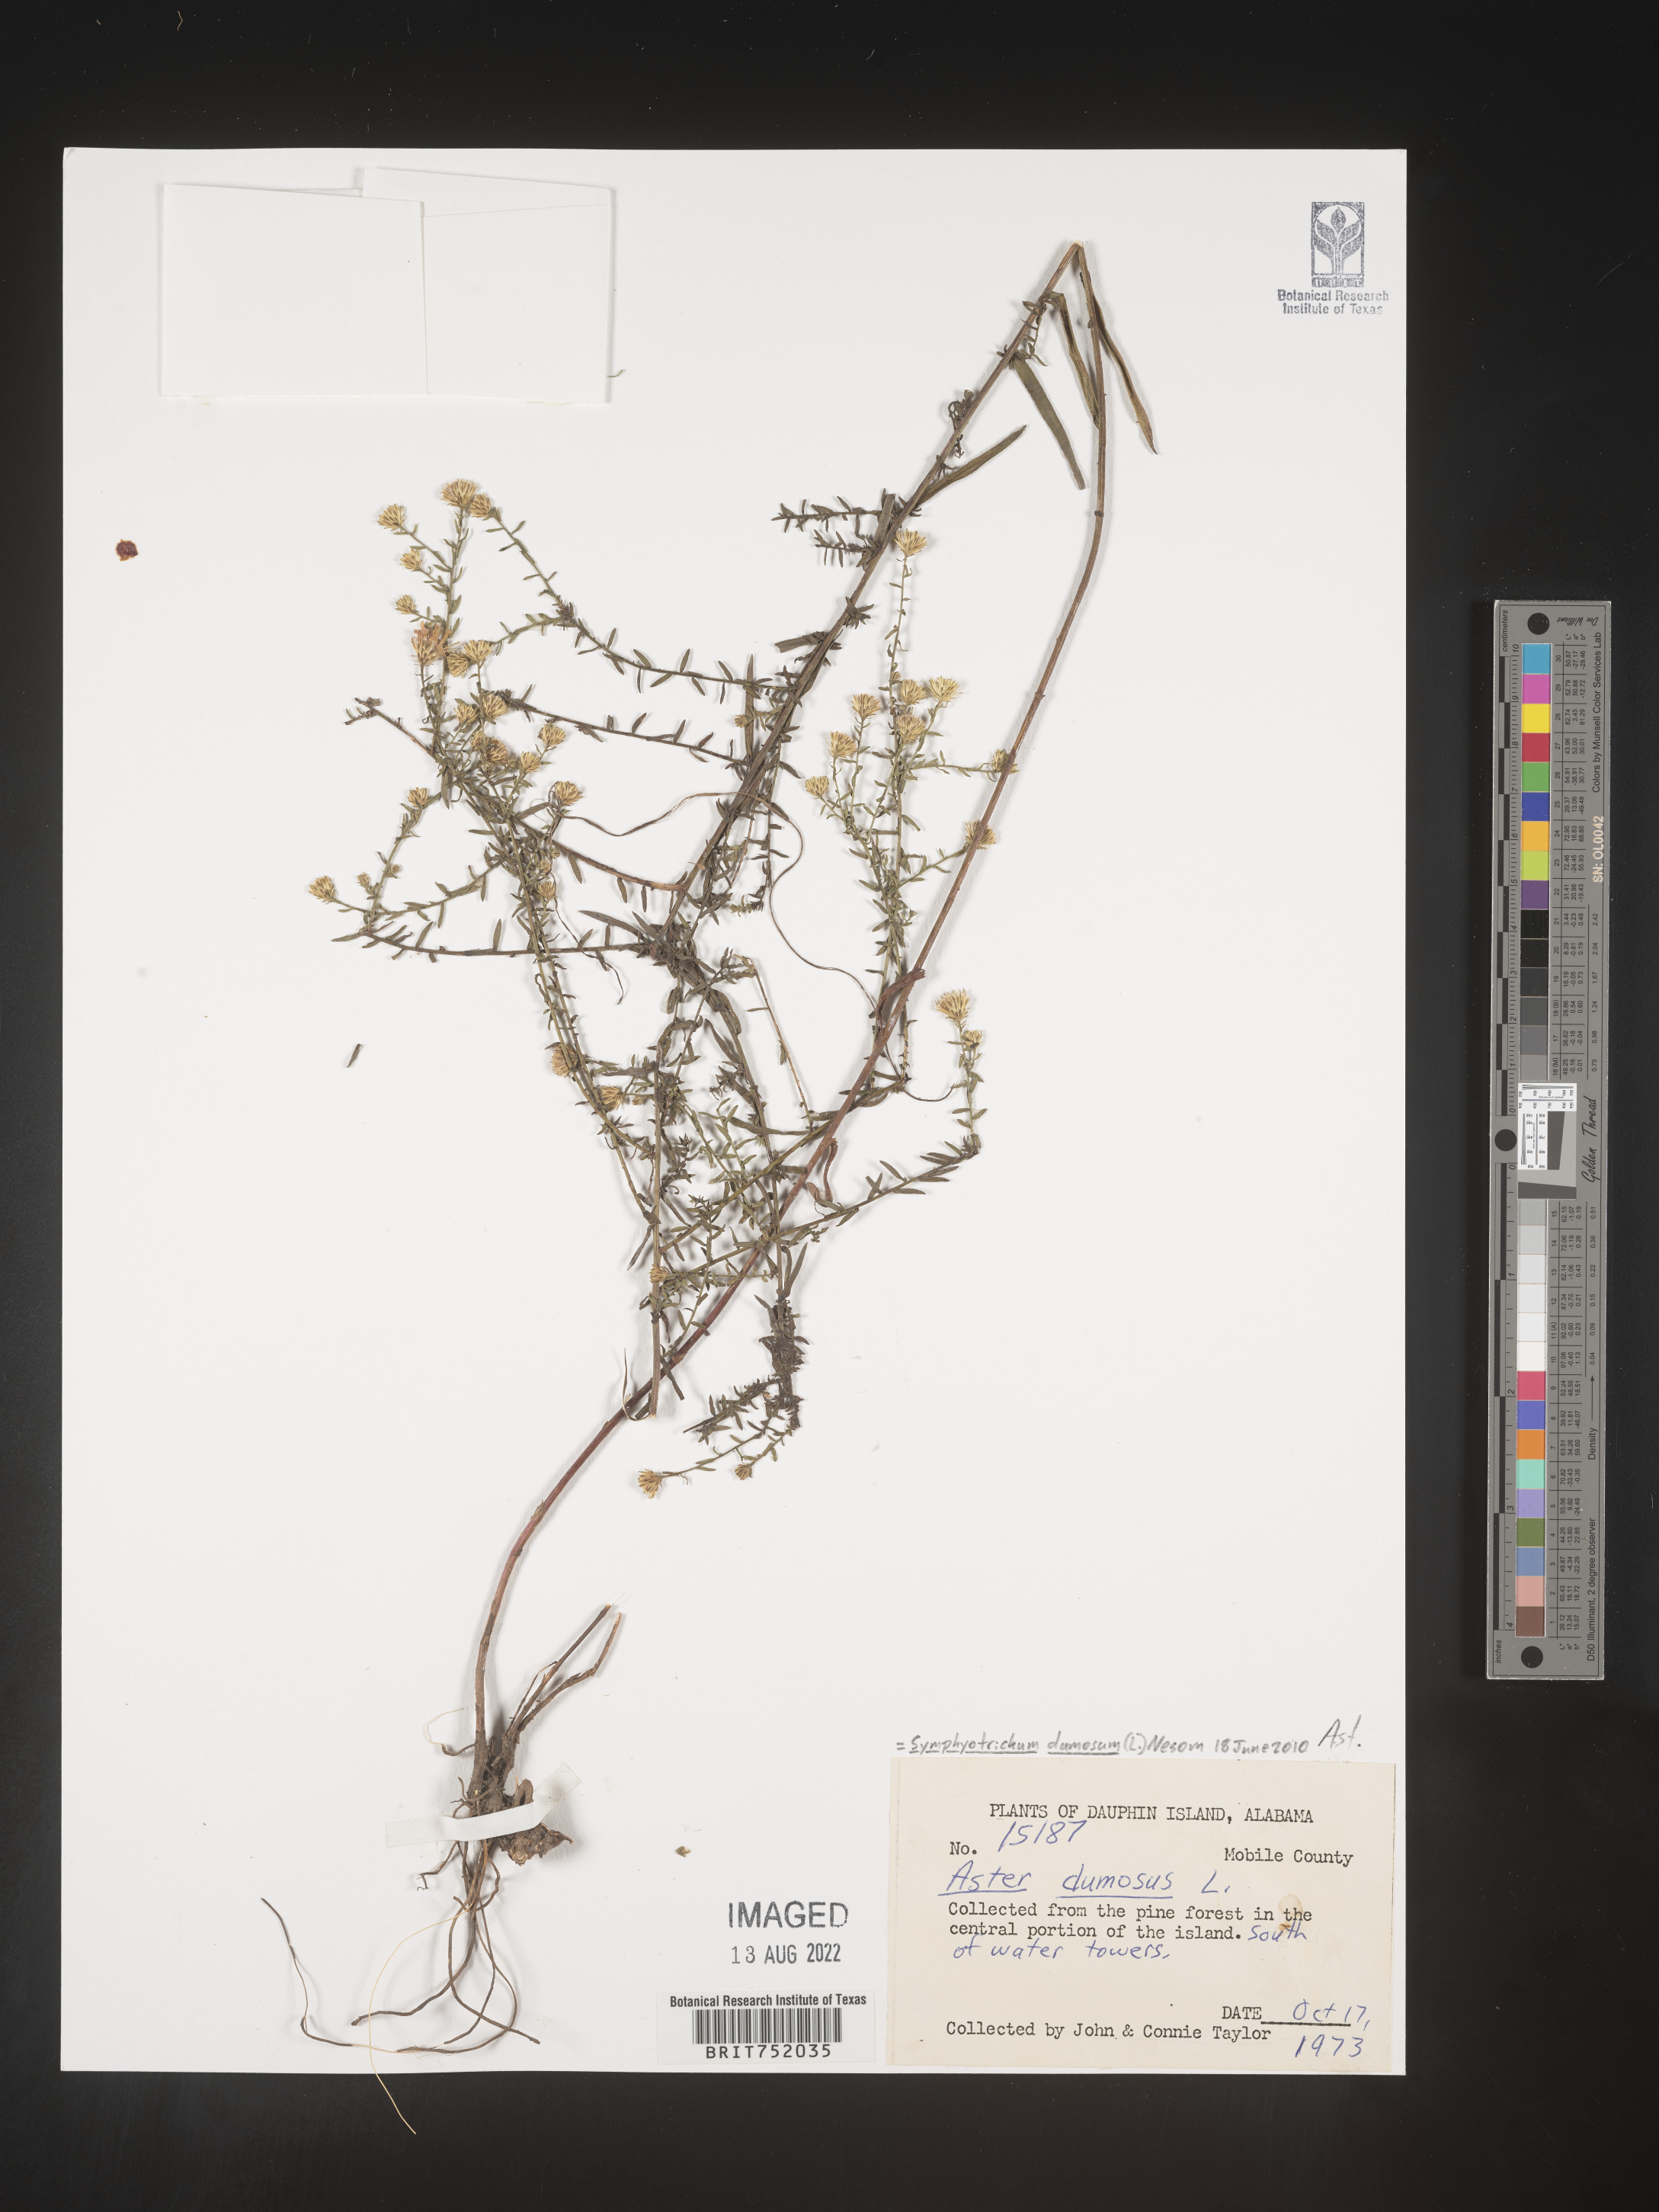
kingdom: Plantae
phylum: Tracheophyta
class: Magnoliopsida
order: Asterales
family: Asteraceae
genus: Symphyotrichum
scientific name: Symphyotrichum dumosum
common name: Bushy aster
